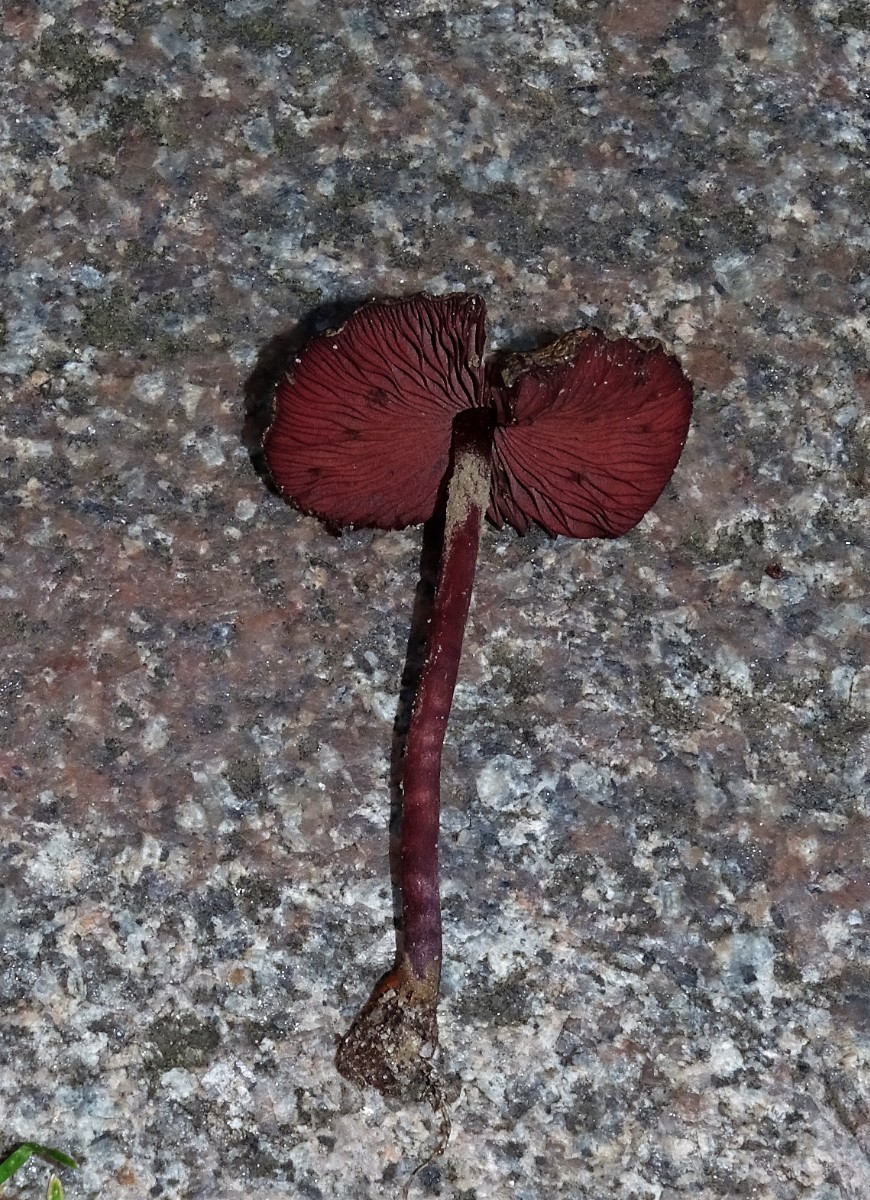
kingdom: Fungi
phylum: Basidiomycota
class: Agaricomycetes
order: Agaricales
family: Agaricaceae
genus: Melanophyllum
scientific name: Melanophyllum haematospermum
